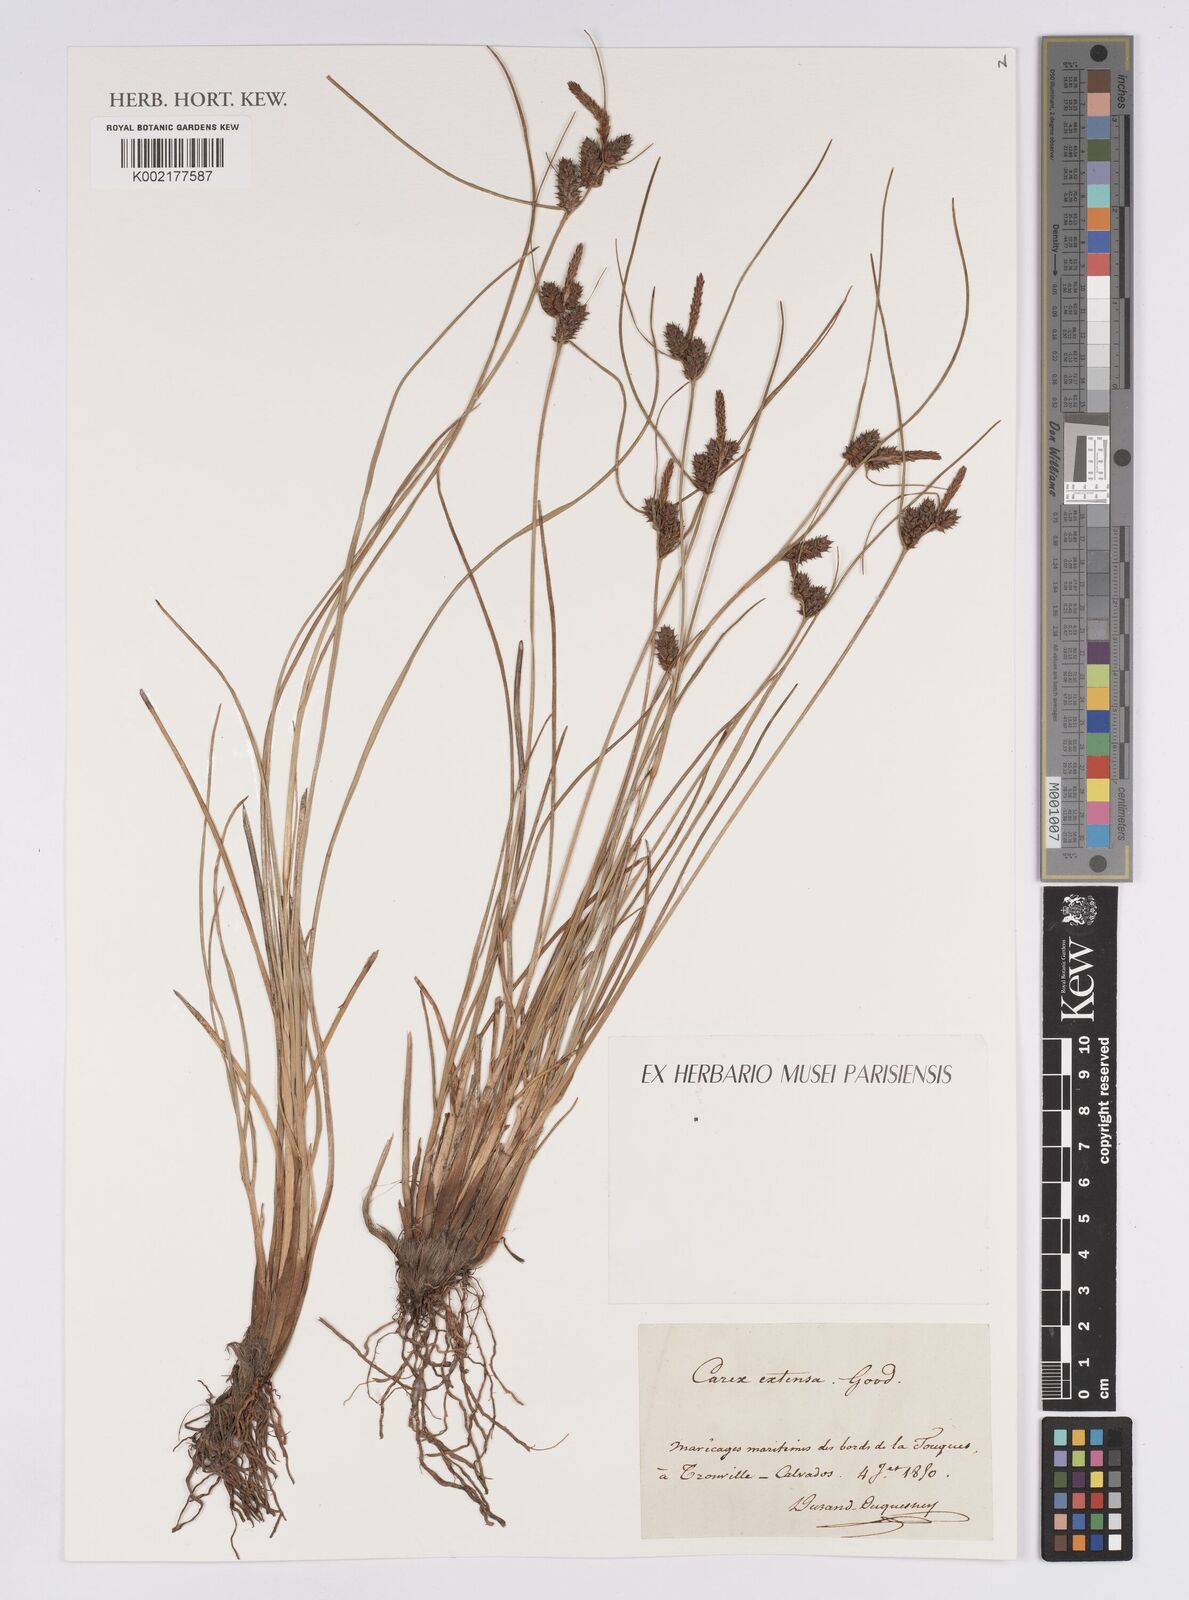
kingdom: Plantae
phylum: Tracheophyta
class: Liliopsida
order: Poales
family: Cyperaceae
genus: Carex
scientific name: Carex extensa
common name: Long-bracted sedge
